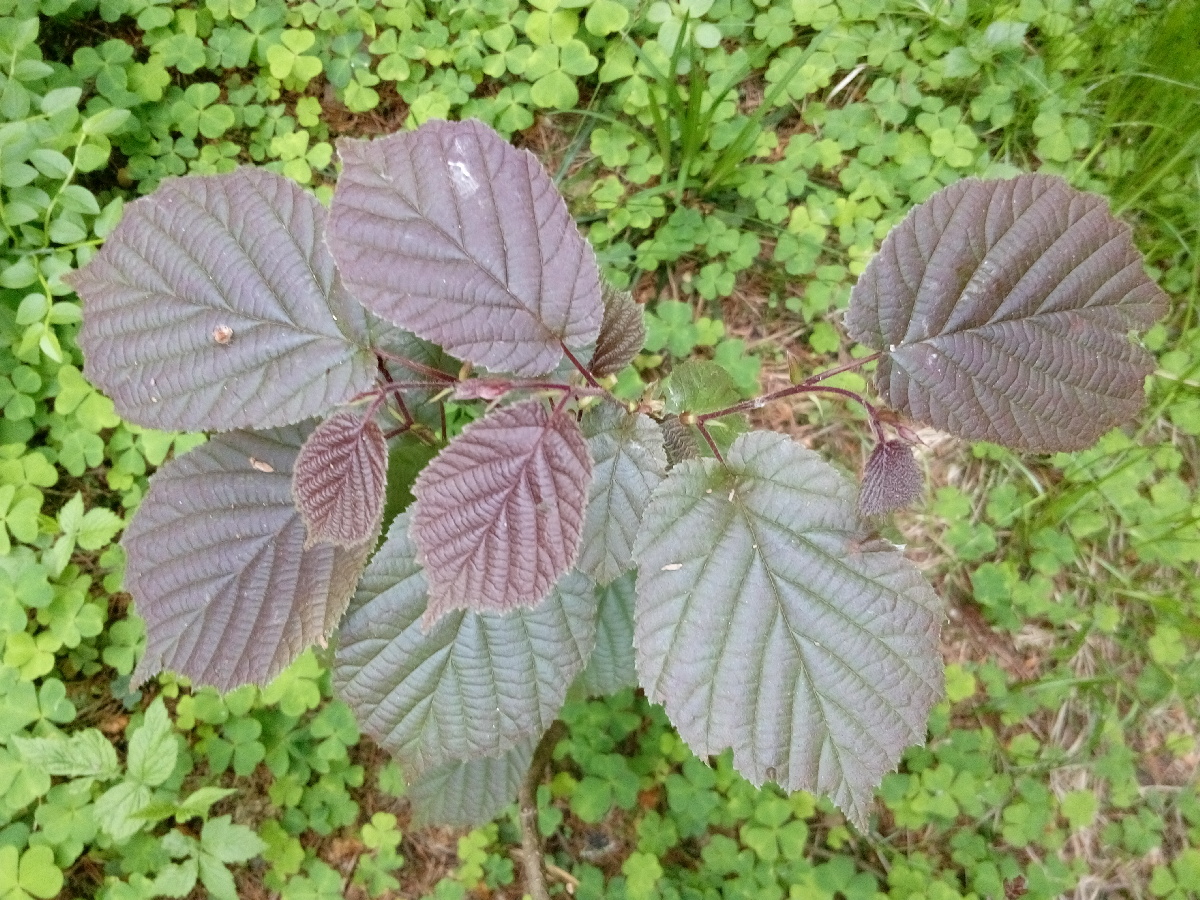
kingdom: Plantae
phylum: Tracheophyta
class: Magnoliopsida
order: Fagales
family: Betulaceae
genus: Corylus
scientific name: Corylus avellana
